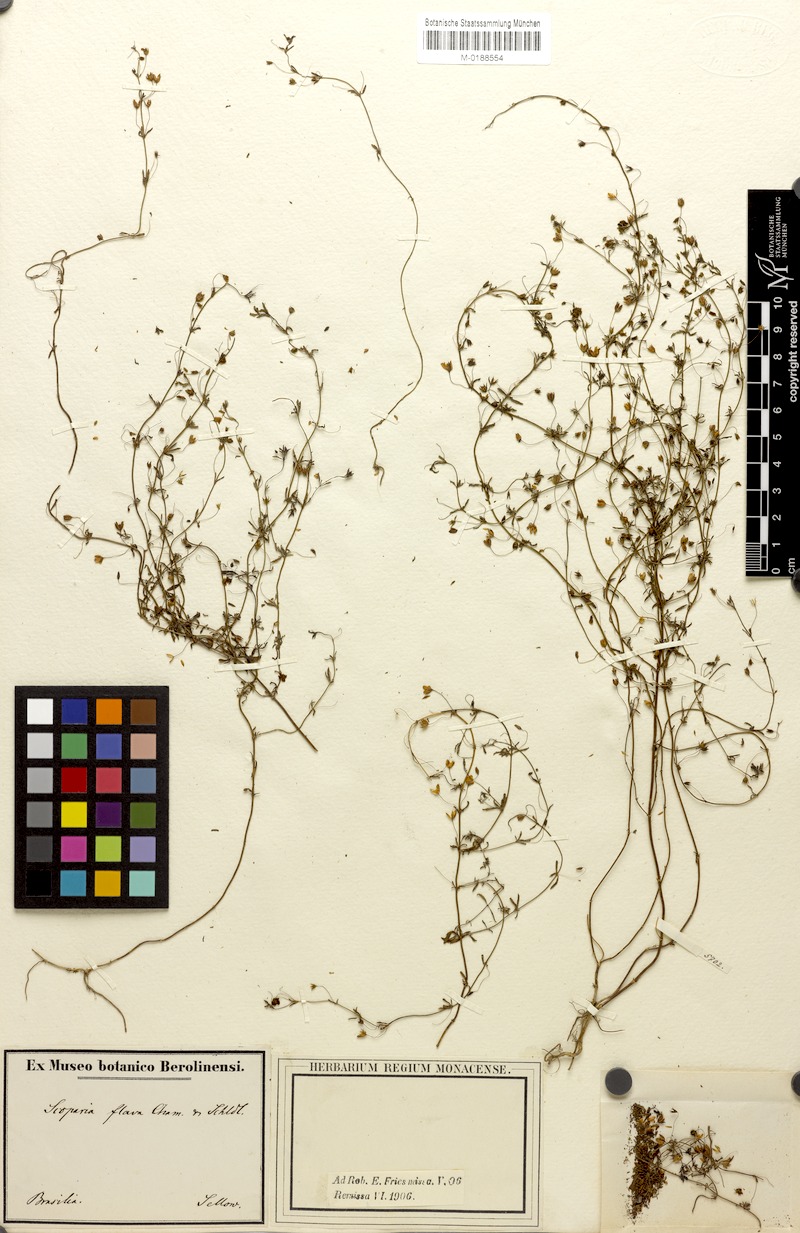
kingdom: Plantae
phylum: Tracheophyta
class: Magnoliopsida
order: Lamiales
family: Plantaginaceae
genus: Scoparia
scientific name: Scoparia montevidensis
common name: Broomwort
